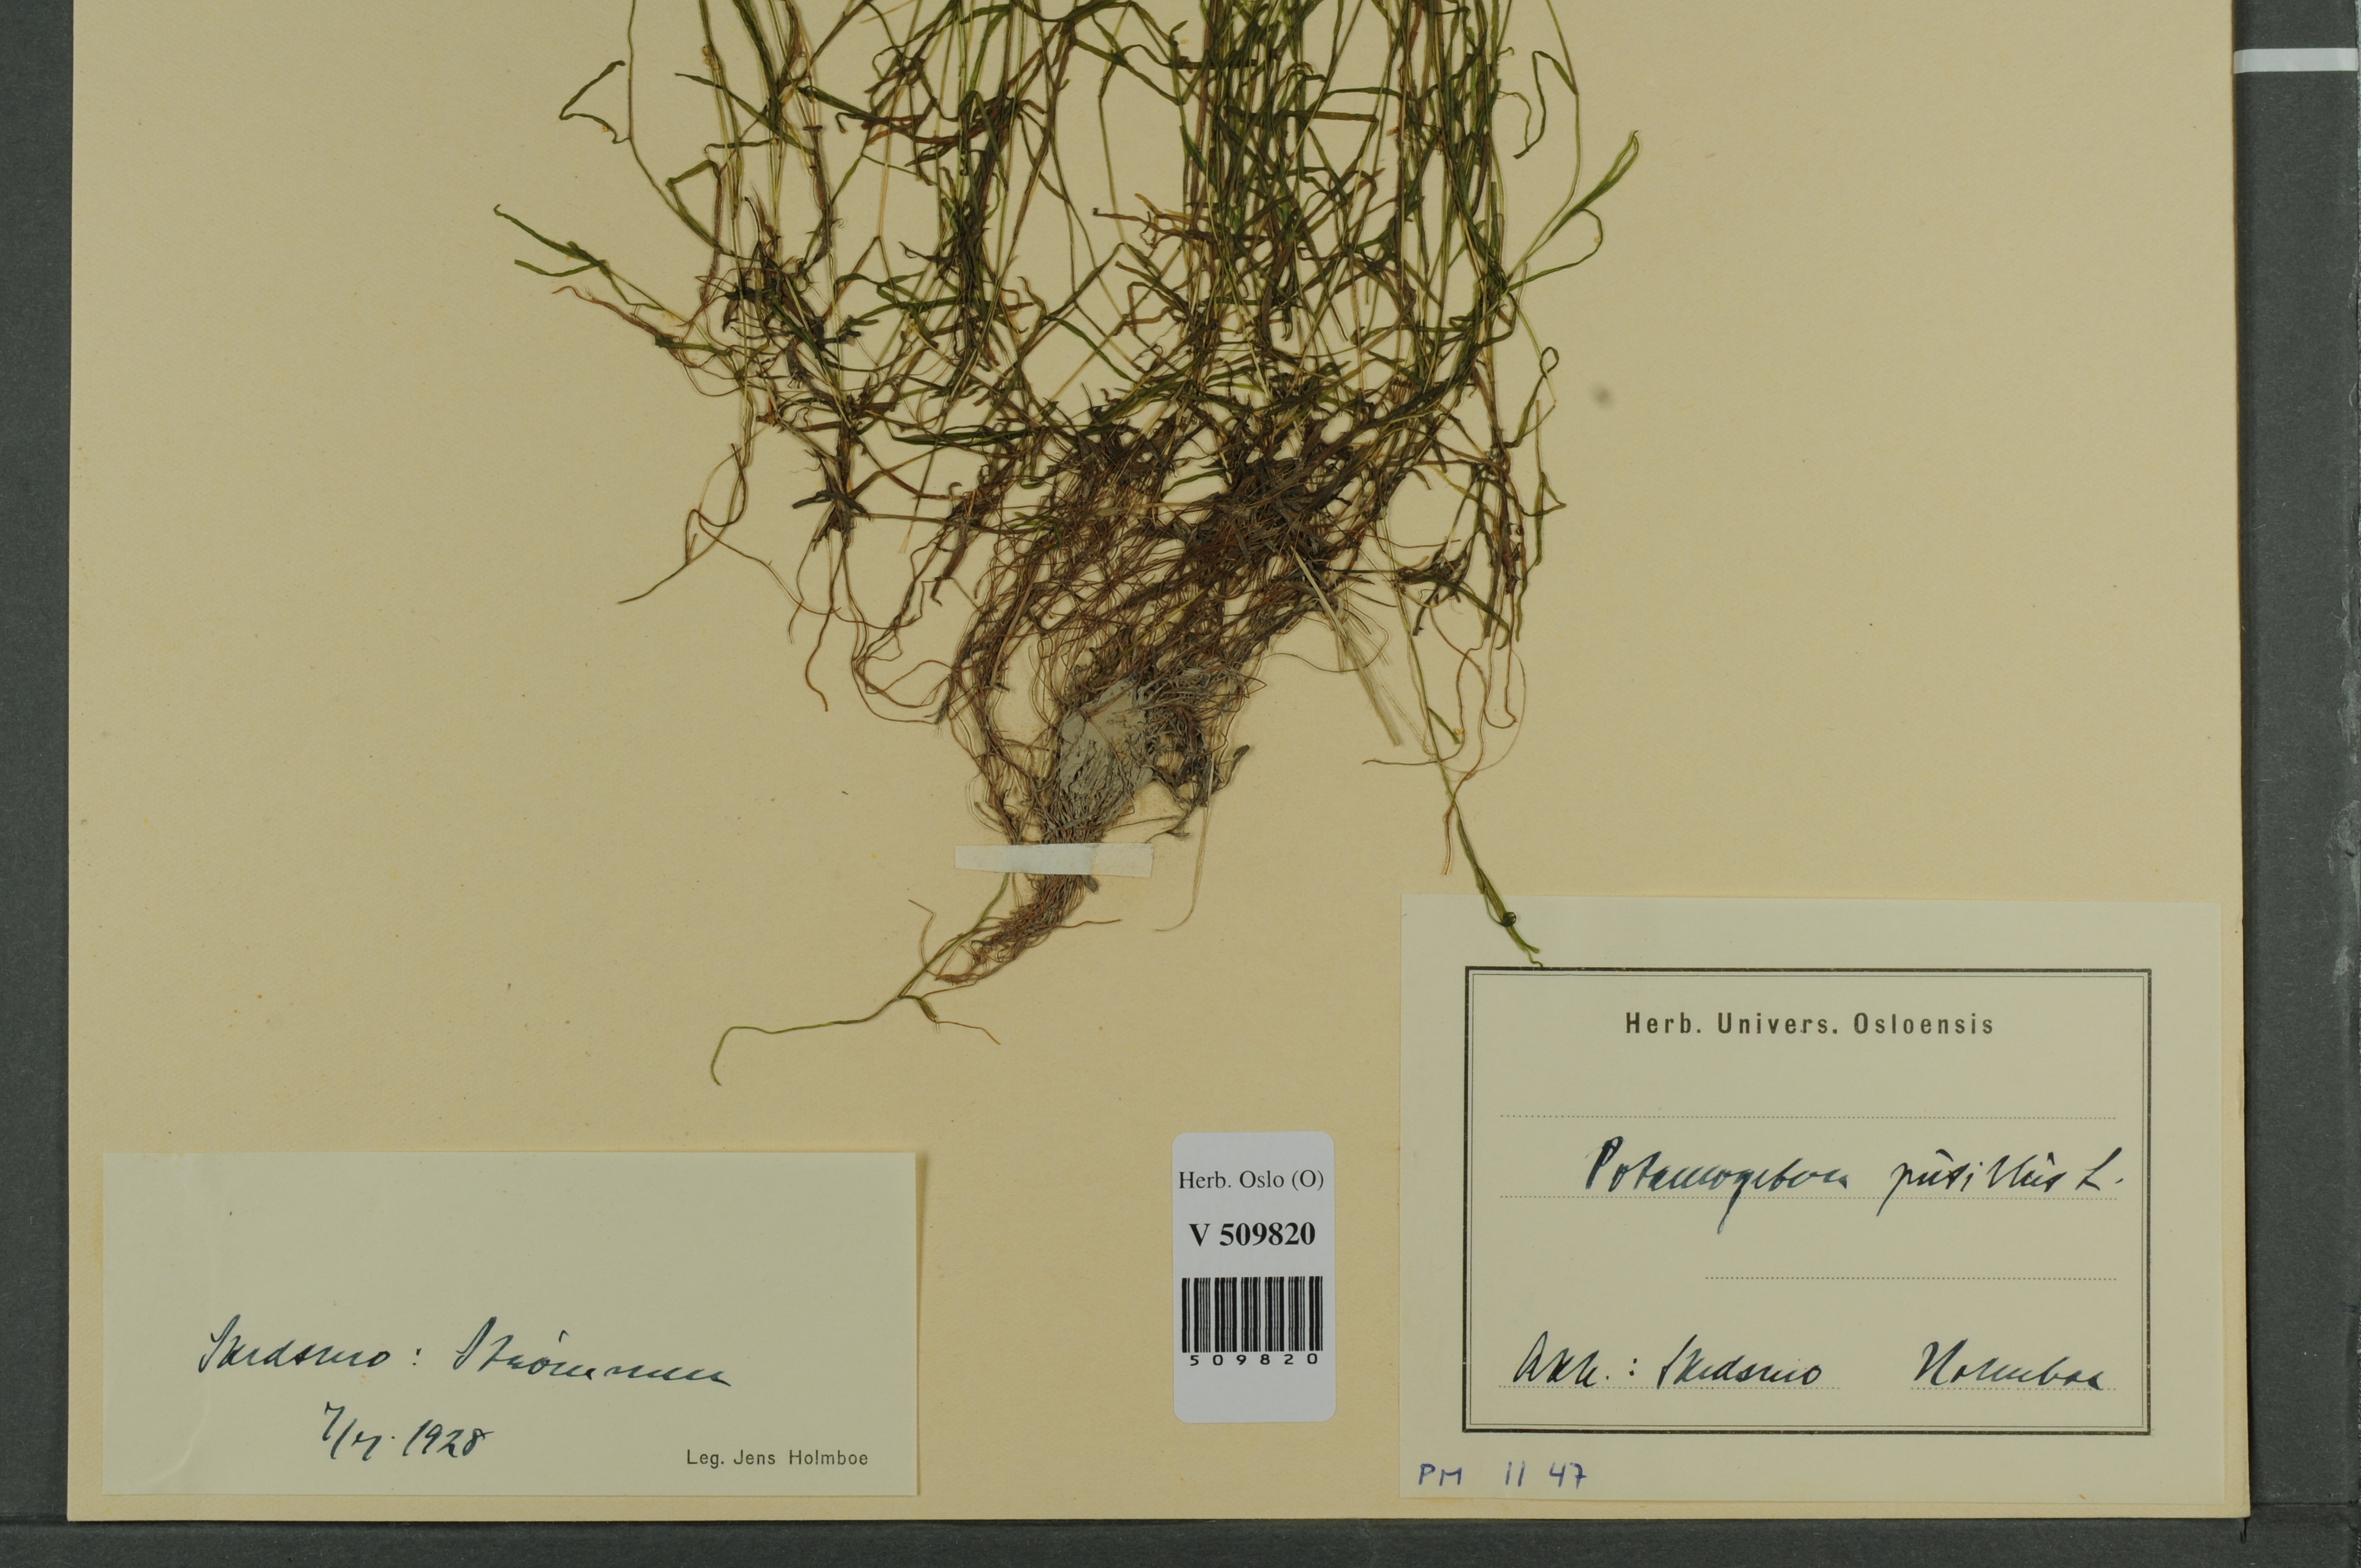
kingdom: Plantae
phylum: Tracheophyta
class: Liliopsida
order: Alismatales
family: Potamogetonaceae
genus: Potamogeton
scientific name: Potamogeton berchtoldii
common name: Small pondweed
